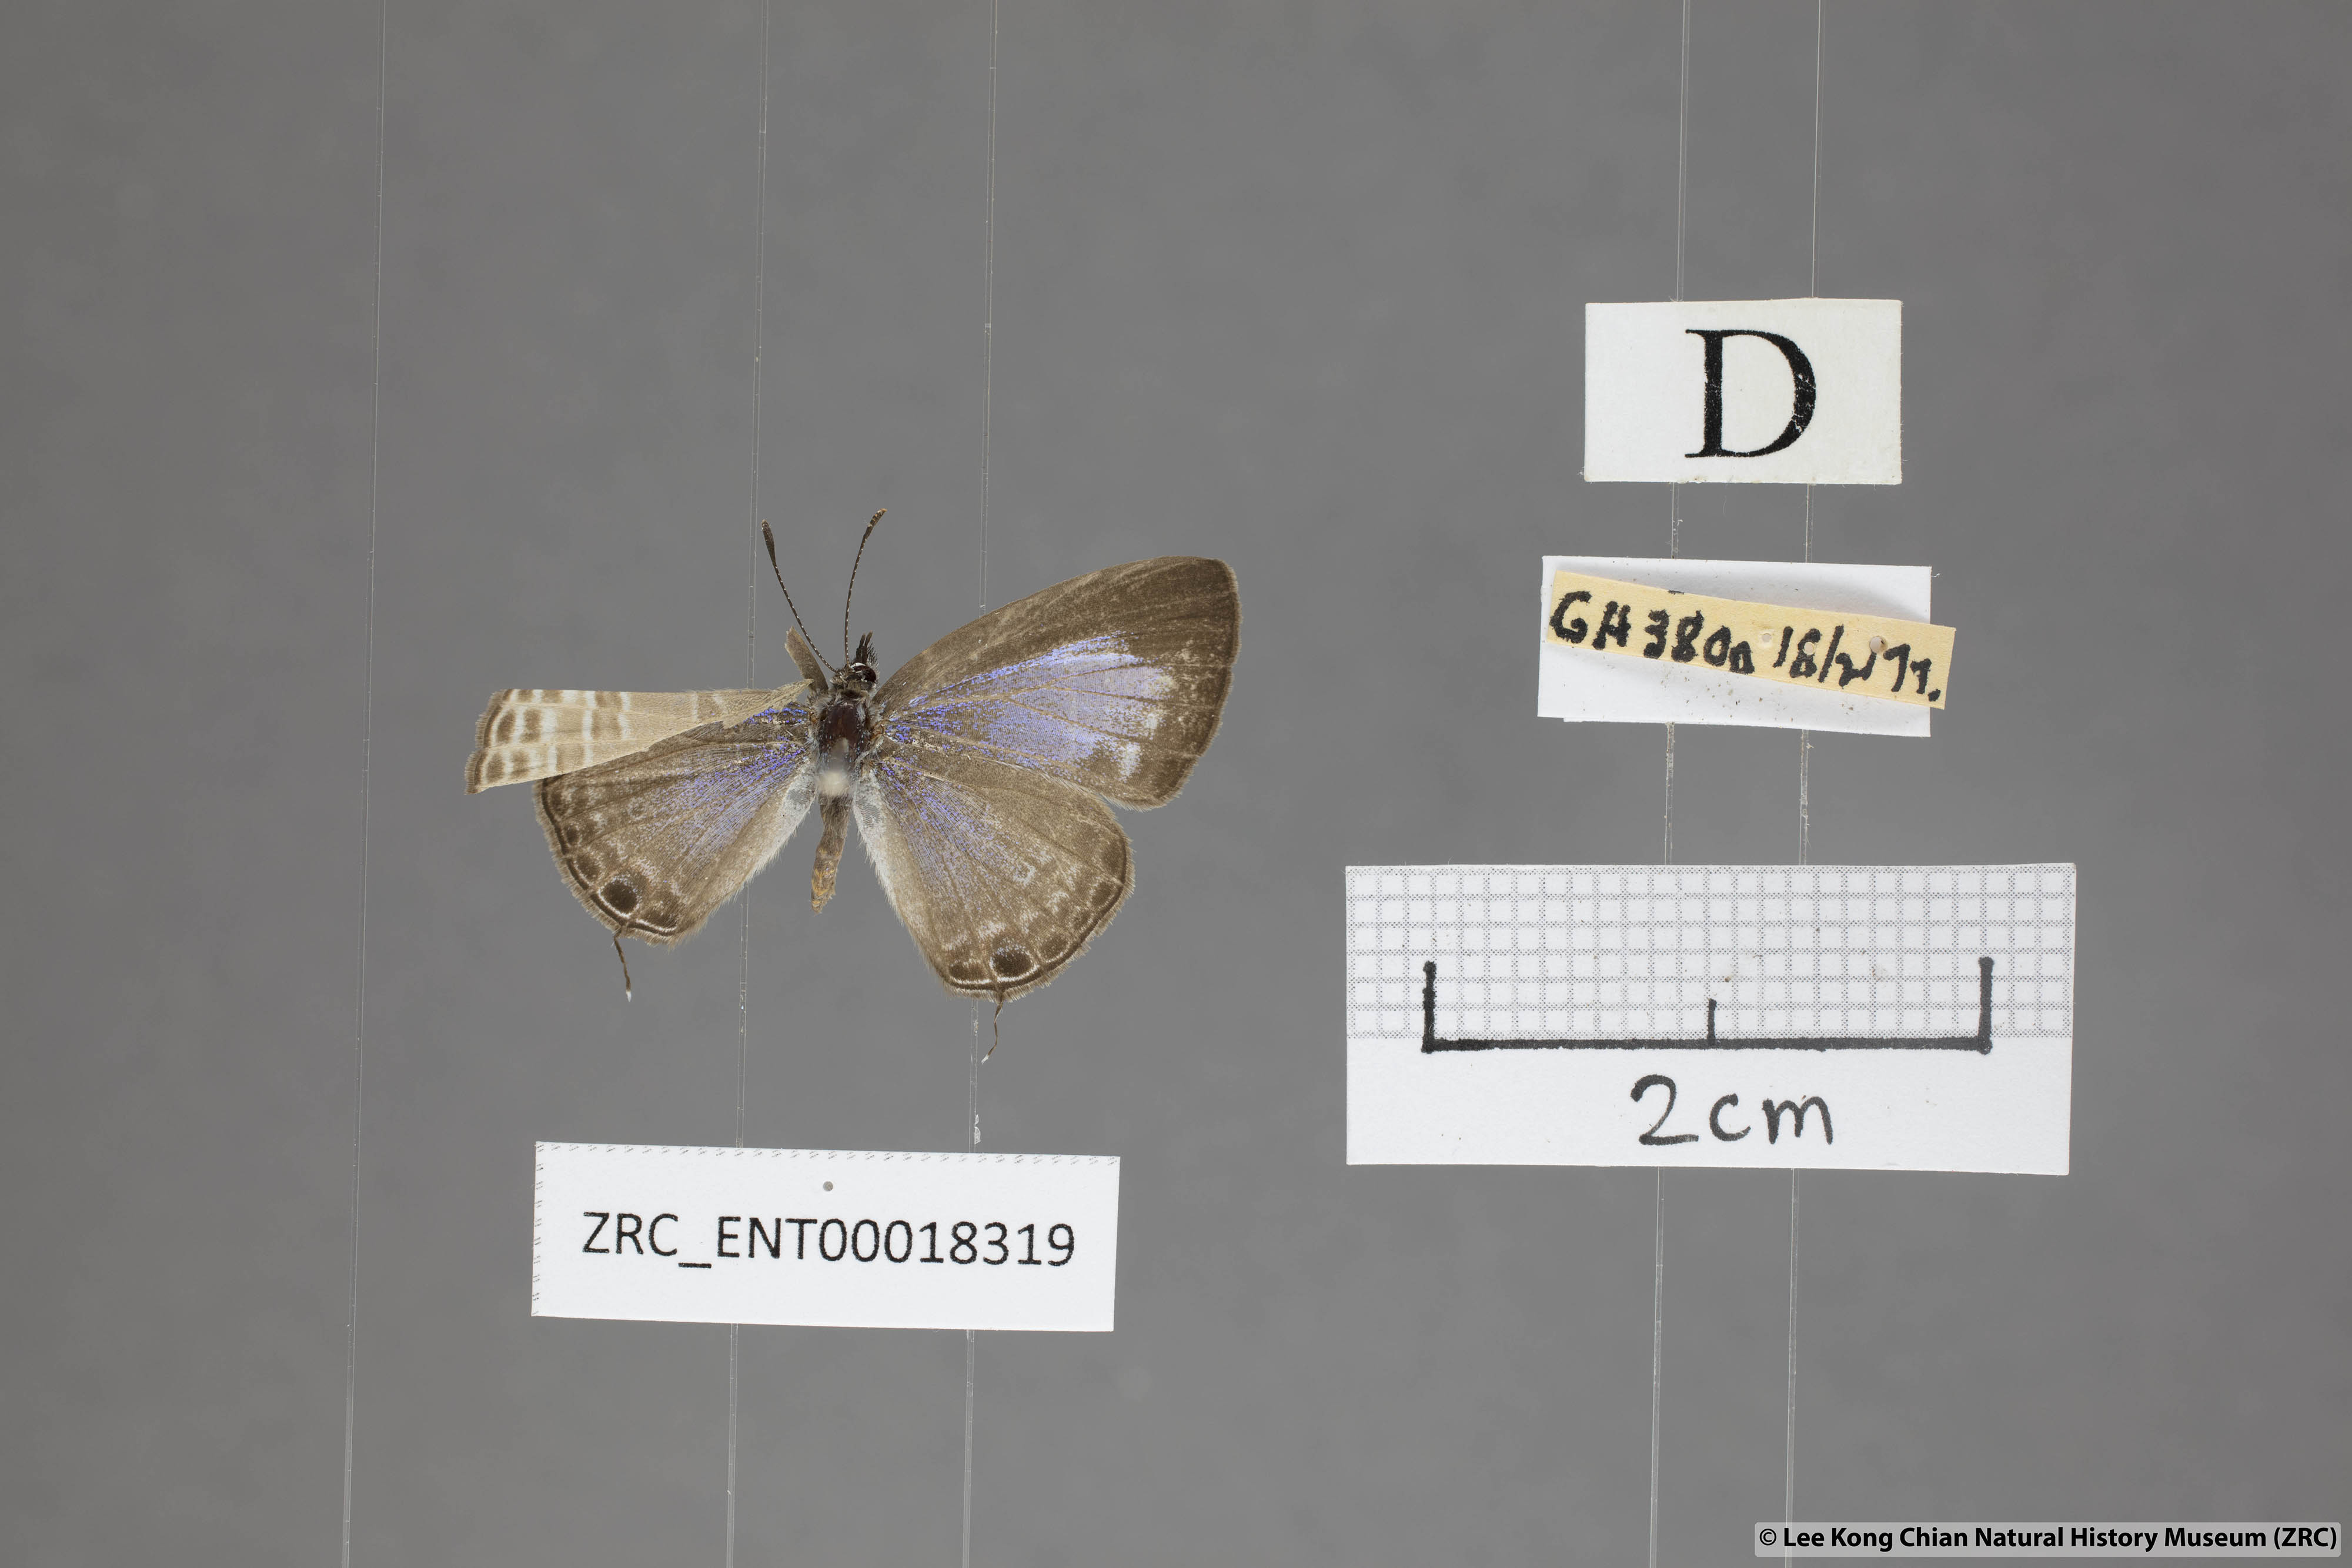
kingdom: Animalia
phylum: Arthropoda
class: Insecta
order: Lepidoptera
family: Lycaenidae
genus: Nacaduba
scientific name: Nacaduba beroe
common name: Opaque sixline blue
